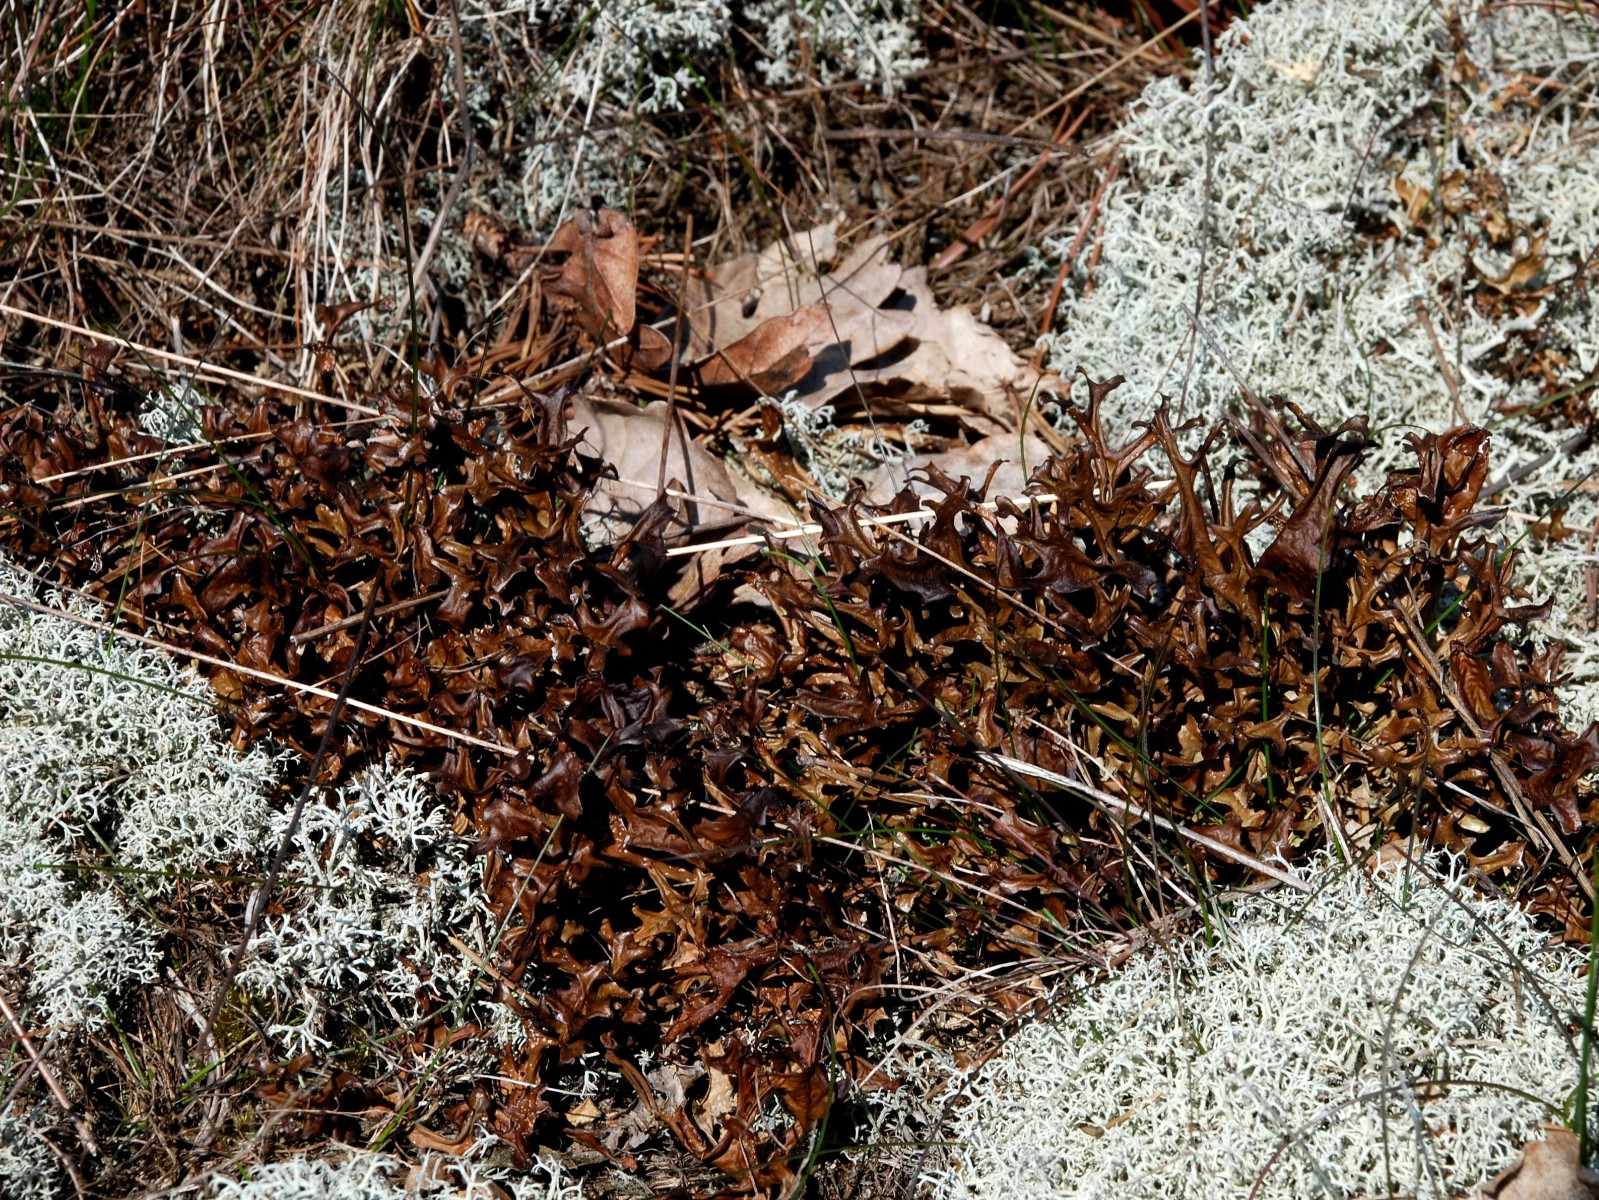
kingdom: Fungi
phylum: Ascomycota
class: Lecanoromycetes
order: Lecanorales
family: Parmeliaceae
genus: Cetraria
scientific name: Cetraria islandica
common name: islandsk kruslav
